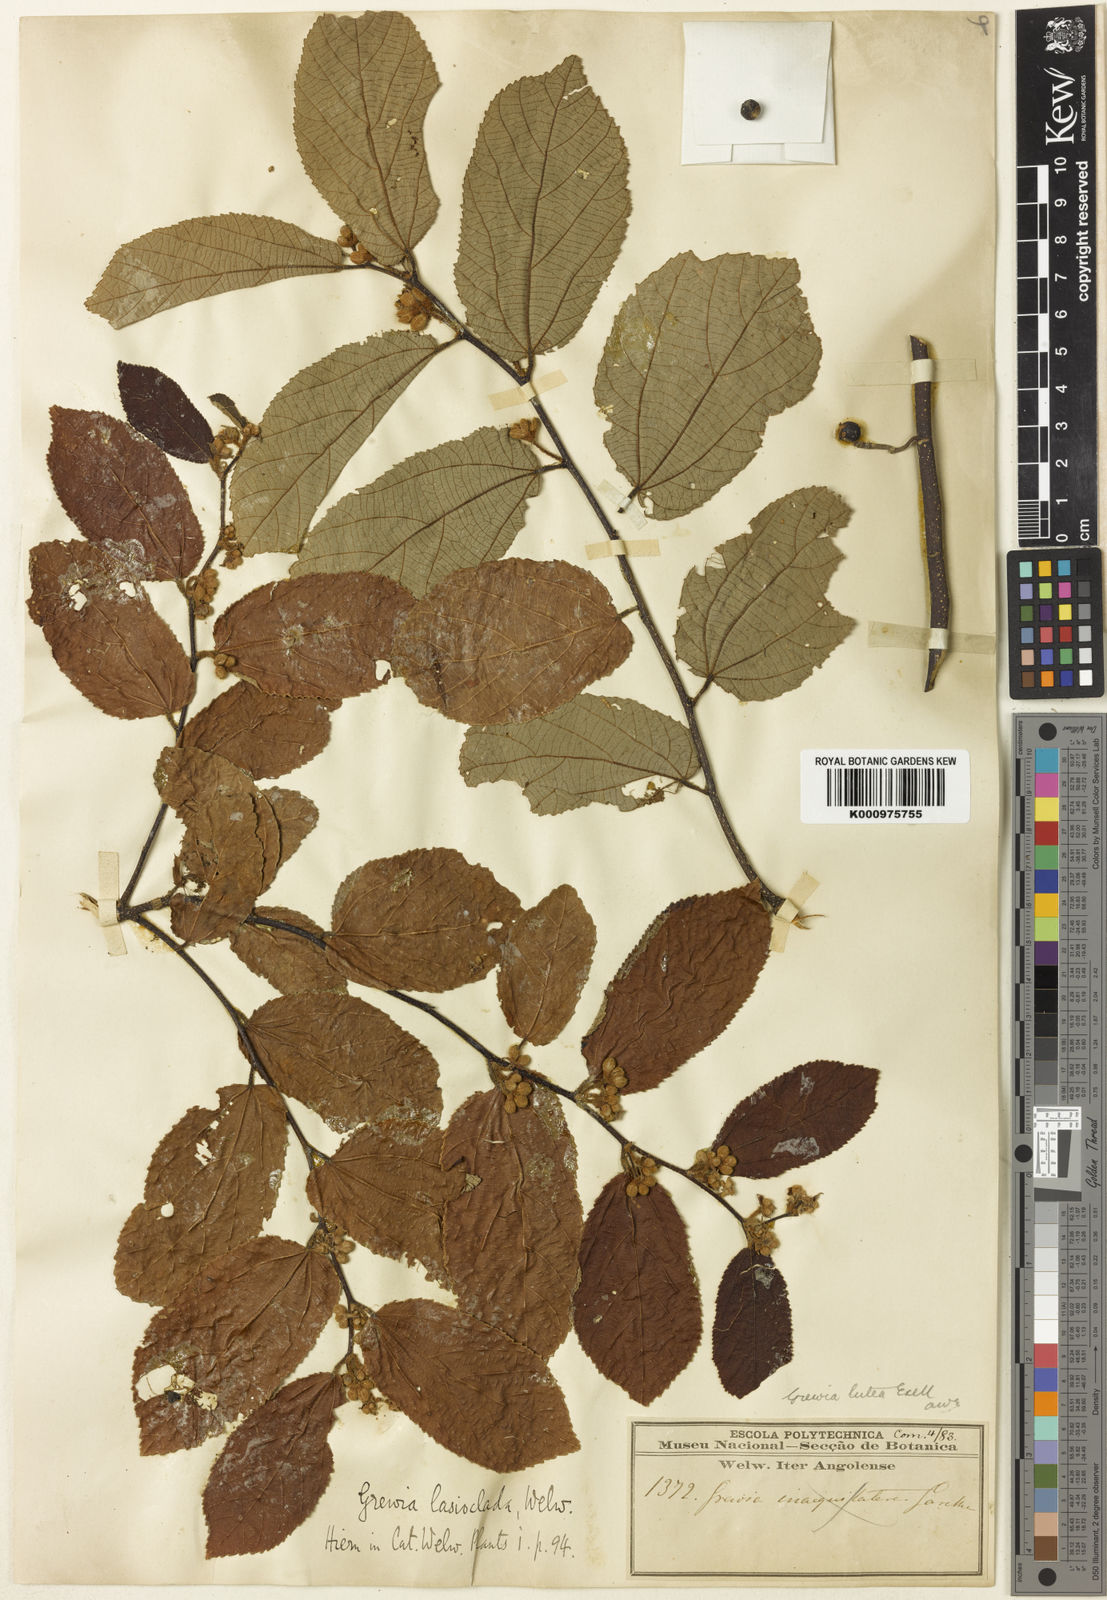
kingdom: Plantae
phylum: Tracheophyta
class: Magnoliopsida
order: Malvales
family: Malvaceae
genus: Grewia
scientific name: Grewia lutea
